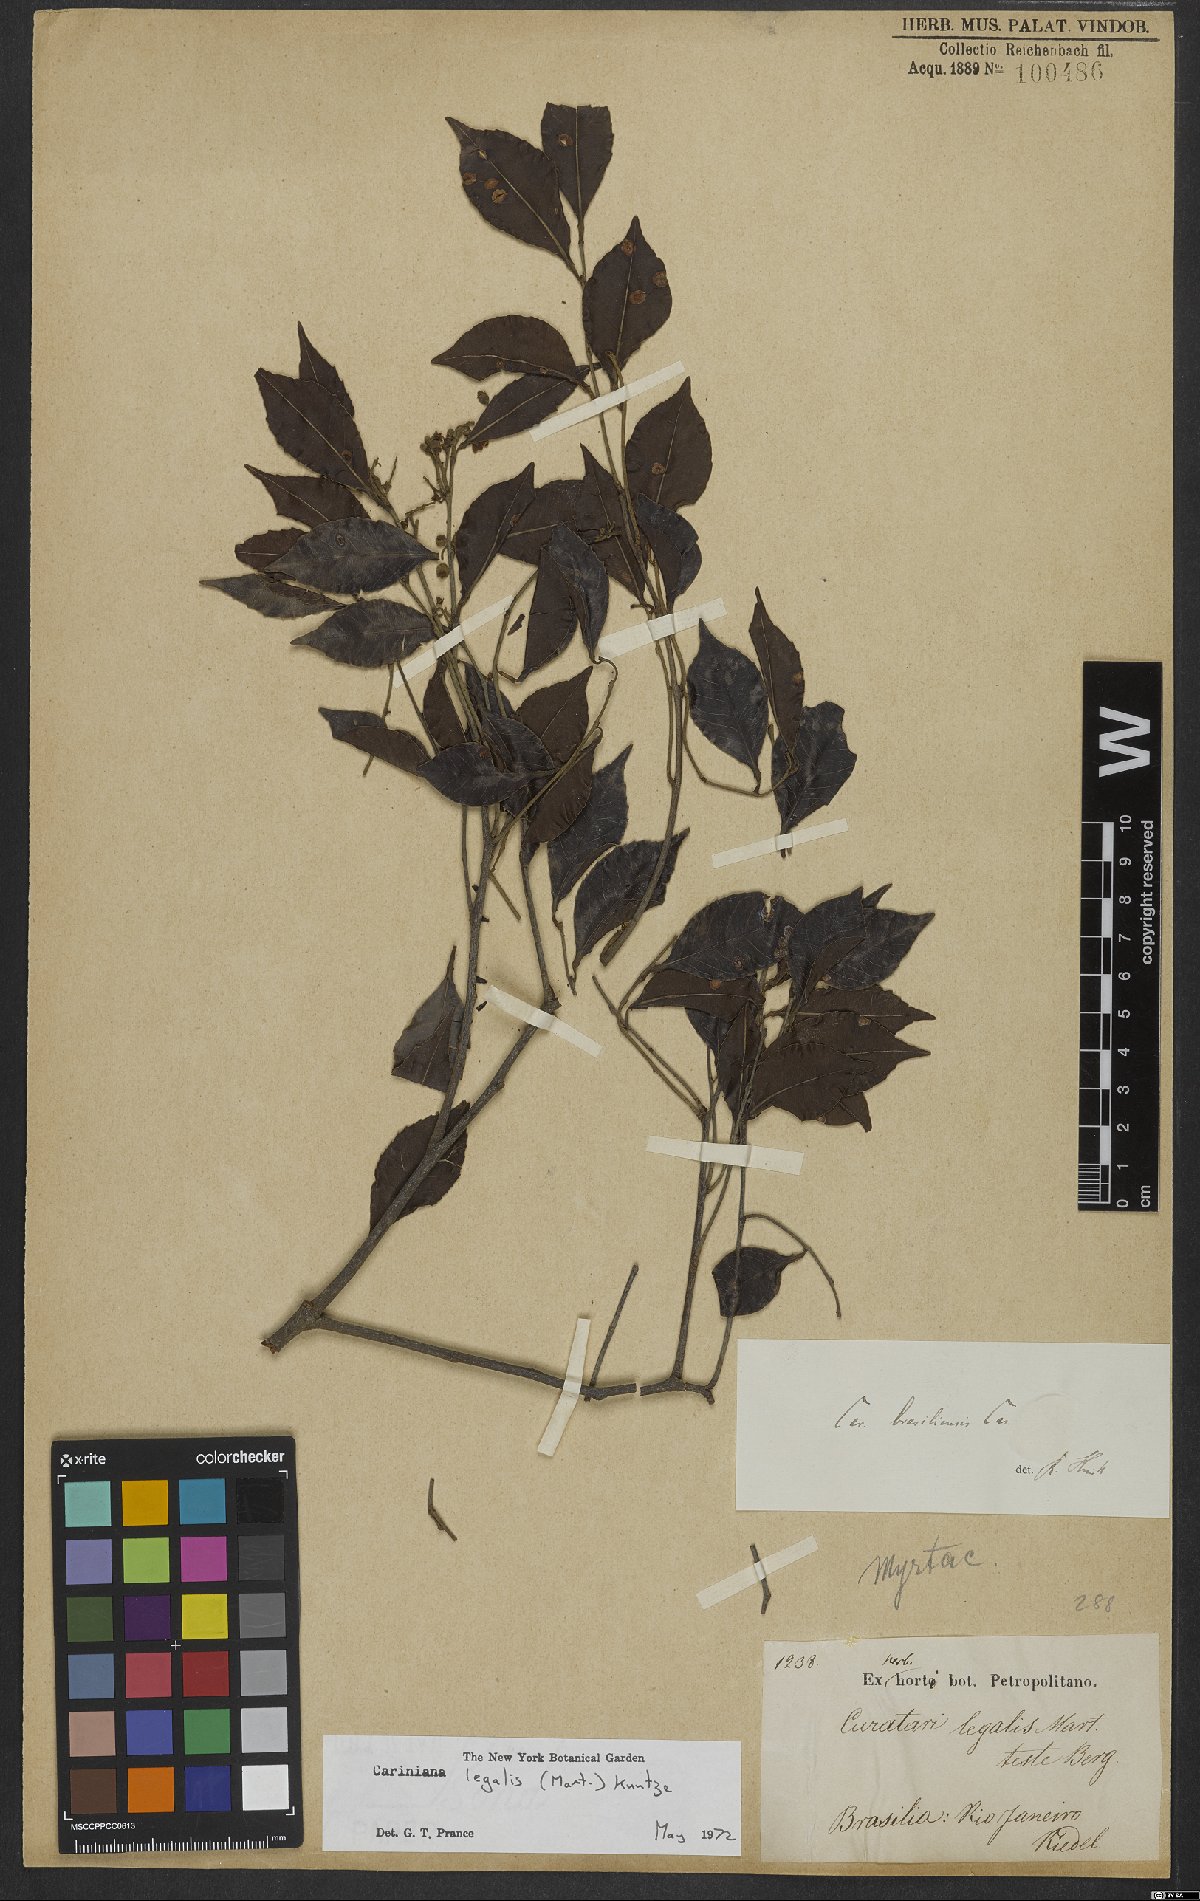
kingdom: Plantae
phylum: Tracheophyta
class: Magnoliopsida
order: Ericales
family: Lecythidaceae
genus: Cariniana
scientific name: Cariniana legalis
